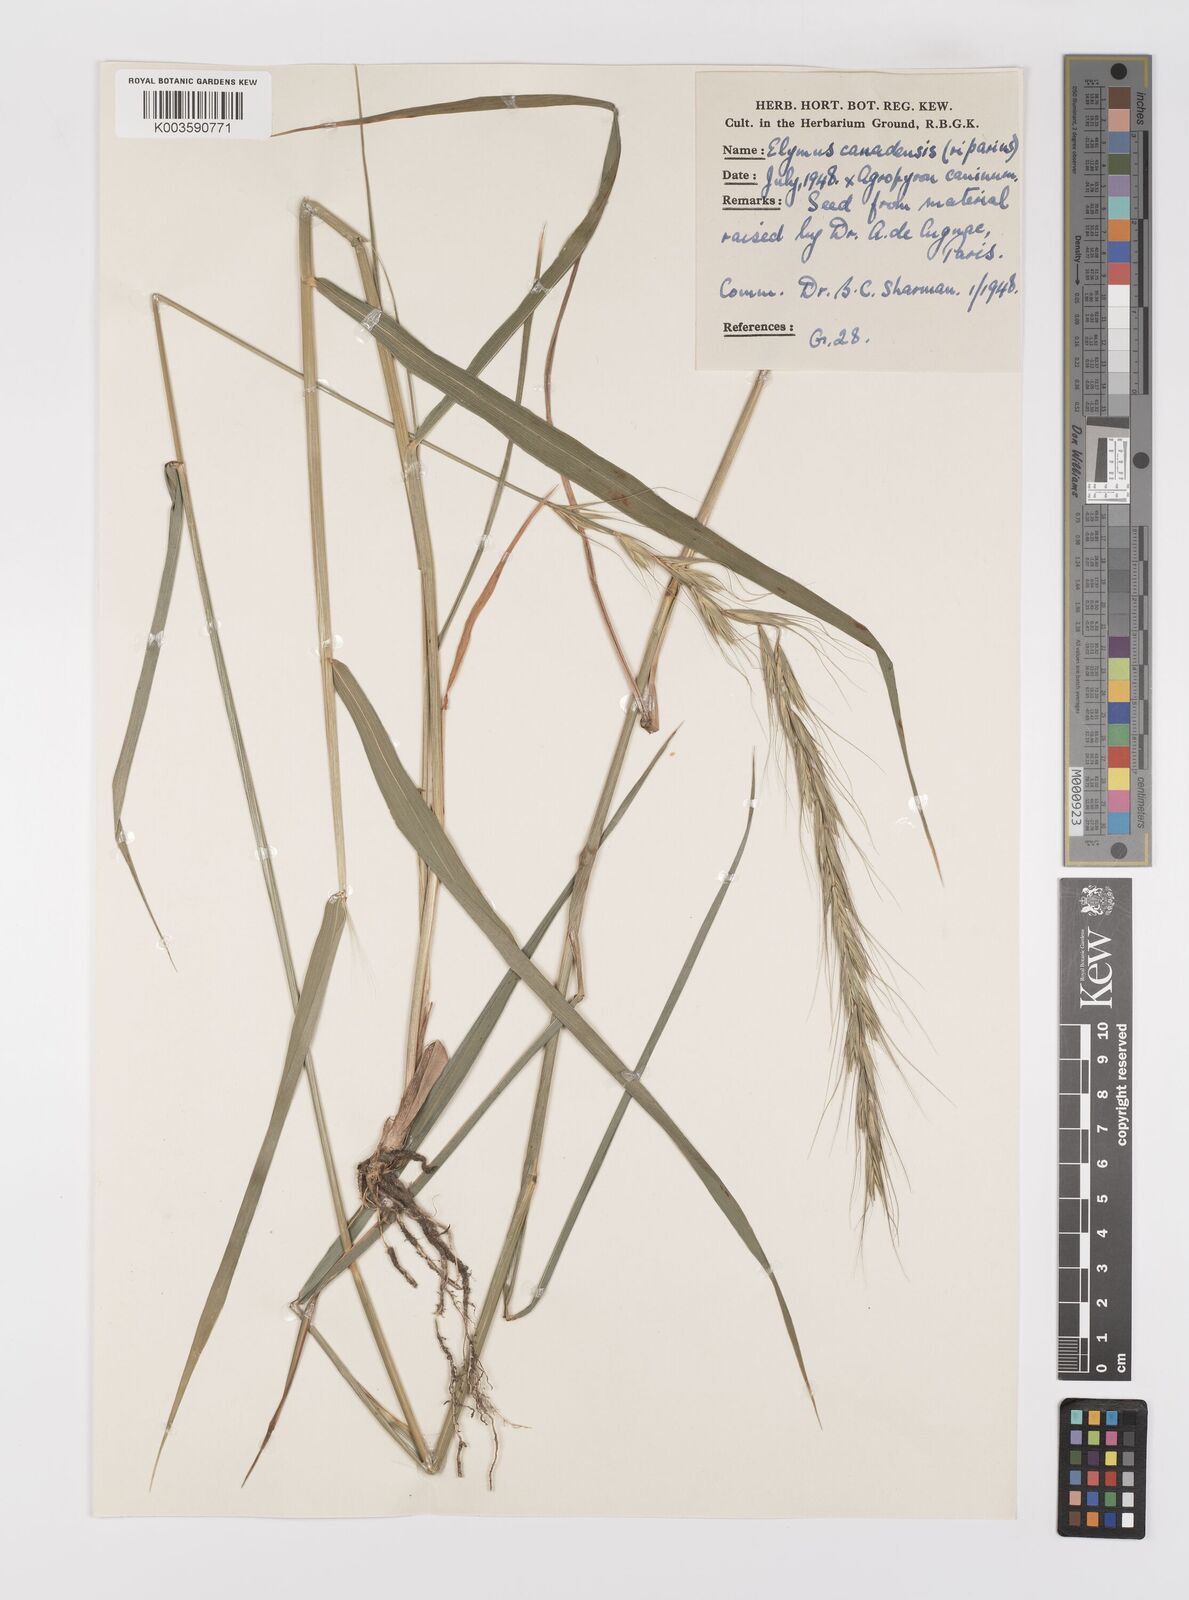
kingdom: Plantae
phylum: Tracheophyta
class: Liliopsida
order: Poales
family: Poaceae
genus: Elymus
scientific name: Elymus canadensis
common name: Canada wild rye
